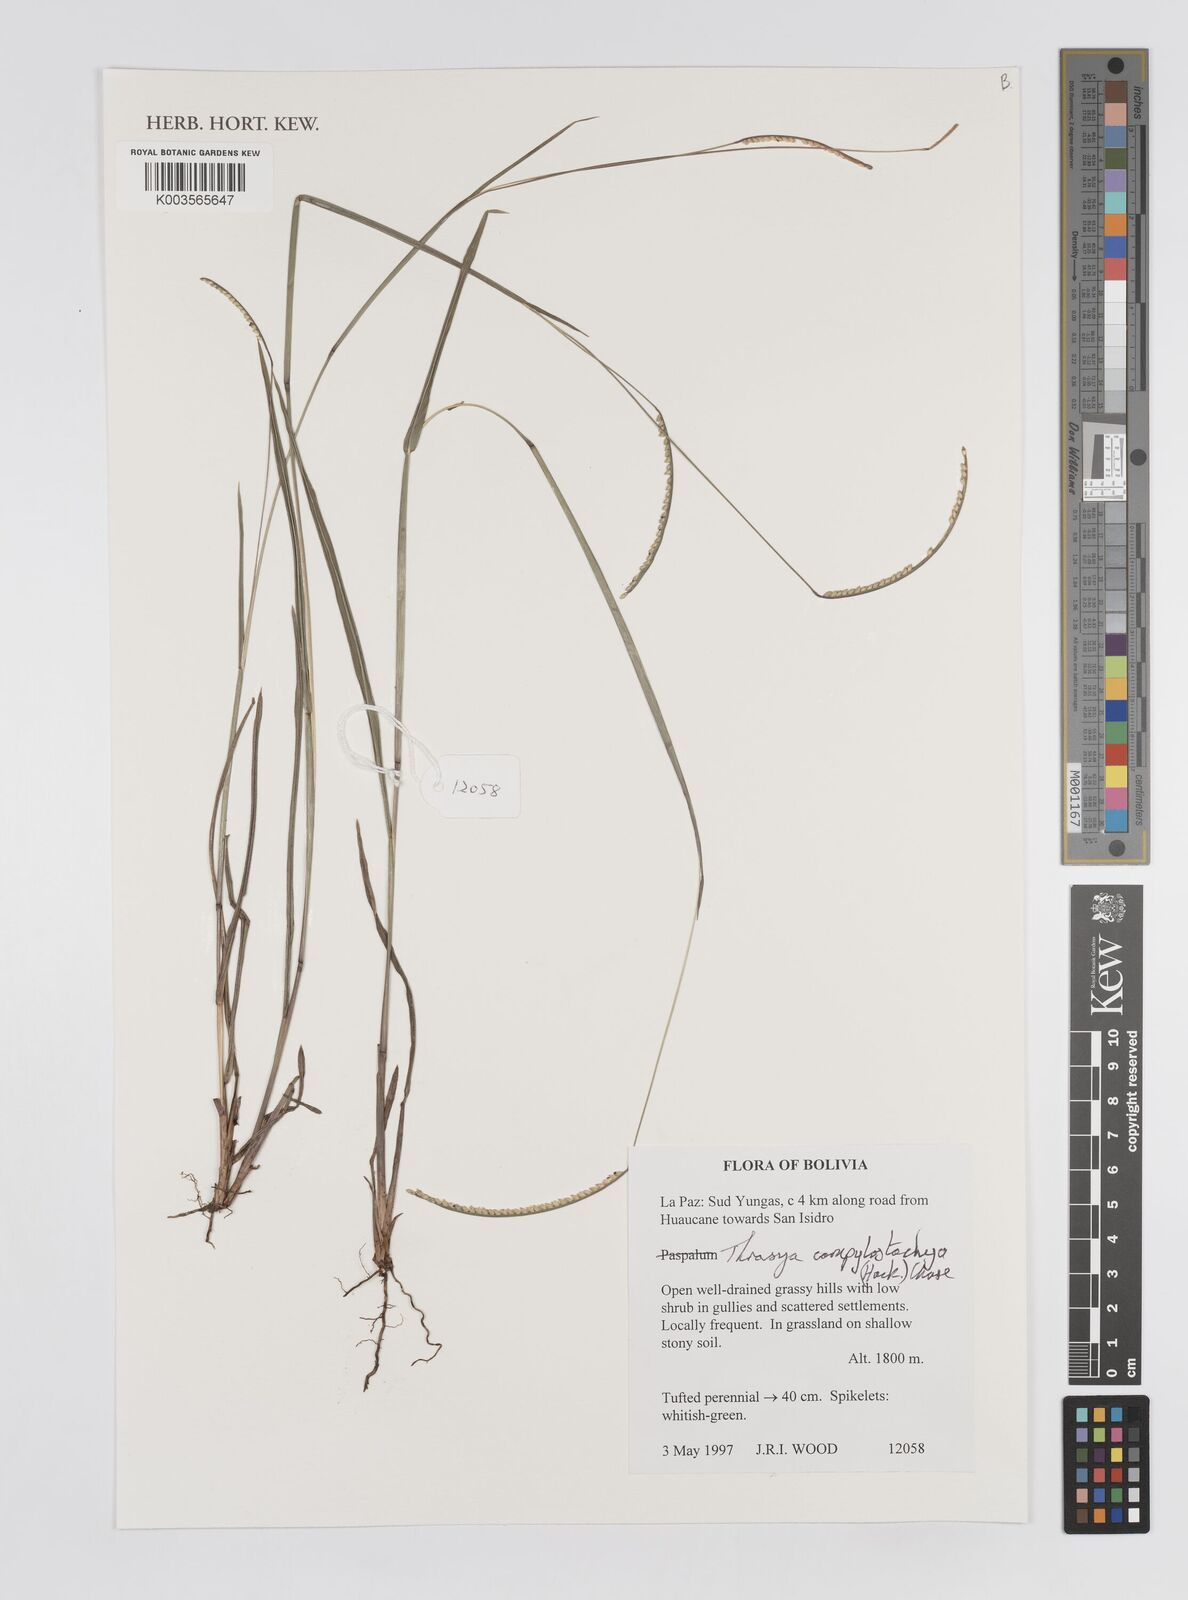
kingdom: Plantae
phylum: Tracheophyta
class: Liliopsida
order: Poales
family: Poaceae
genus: Paspalum
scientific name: Paspalum campylostachyum
